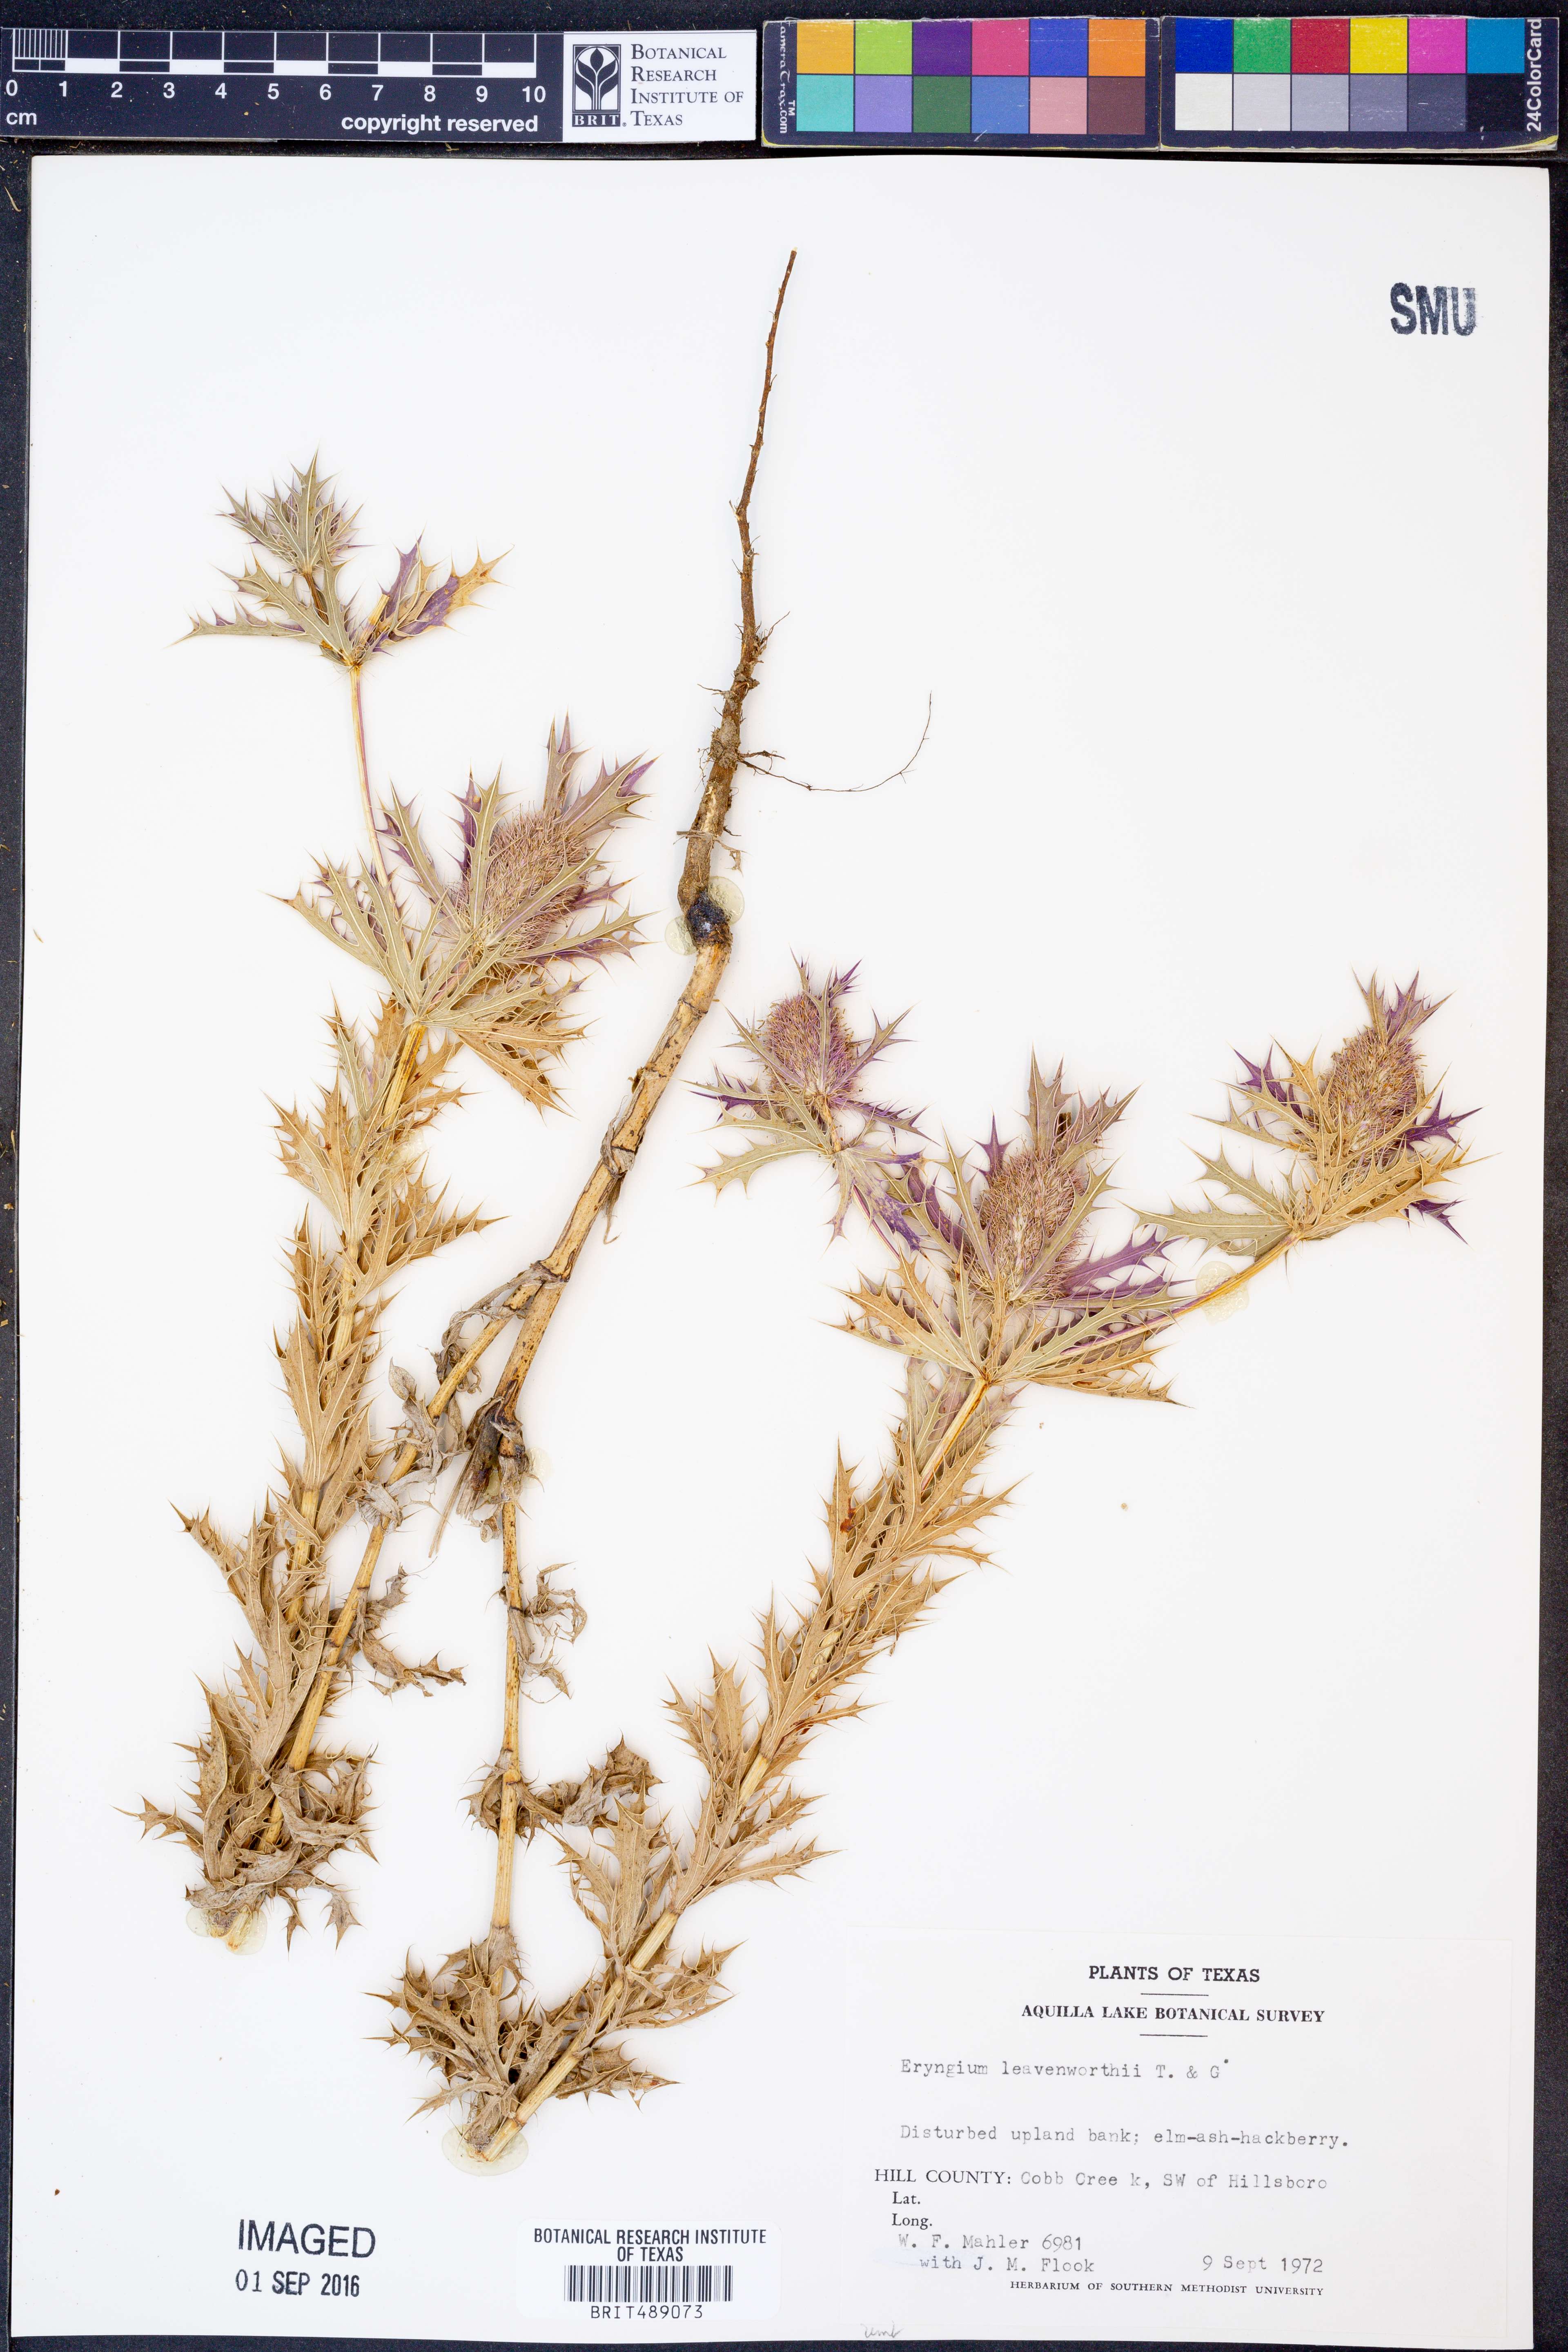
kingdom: Plantae
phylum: Tracheophyta
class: Magnoliopsida
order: Apiales
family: Apiaceae
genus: Eryngium
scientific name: Eryngium leavenworthii
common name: Leavenworth's eryngo
